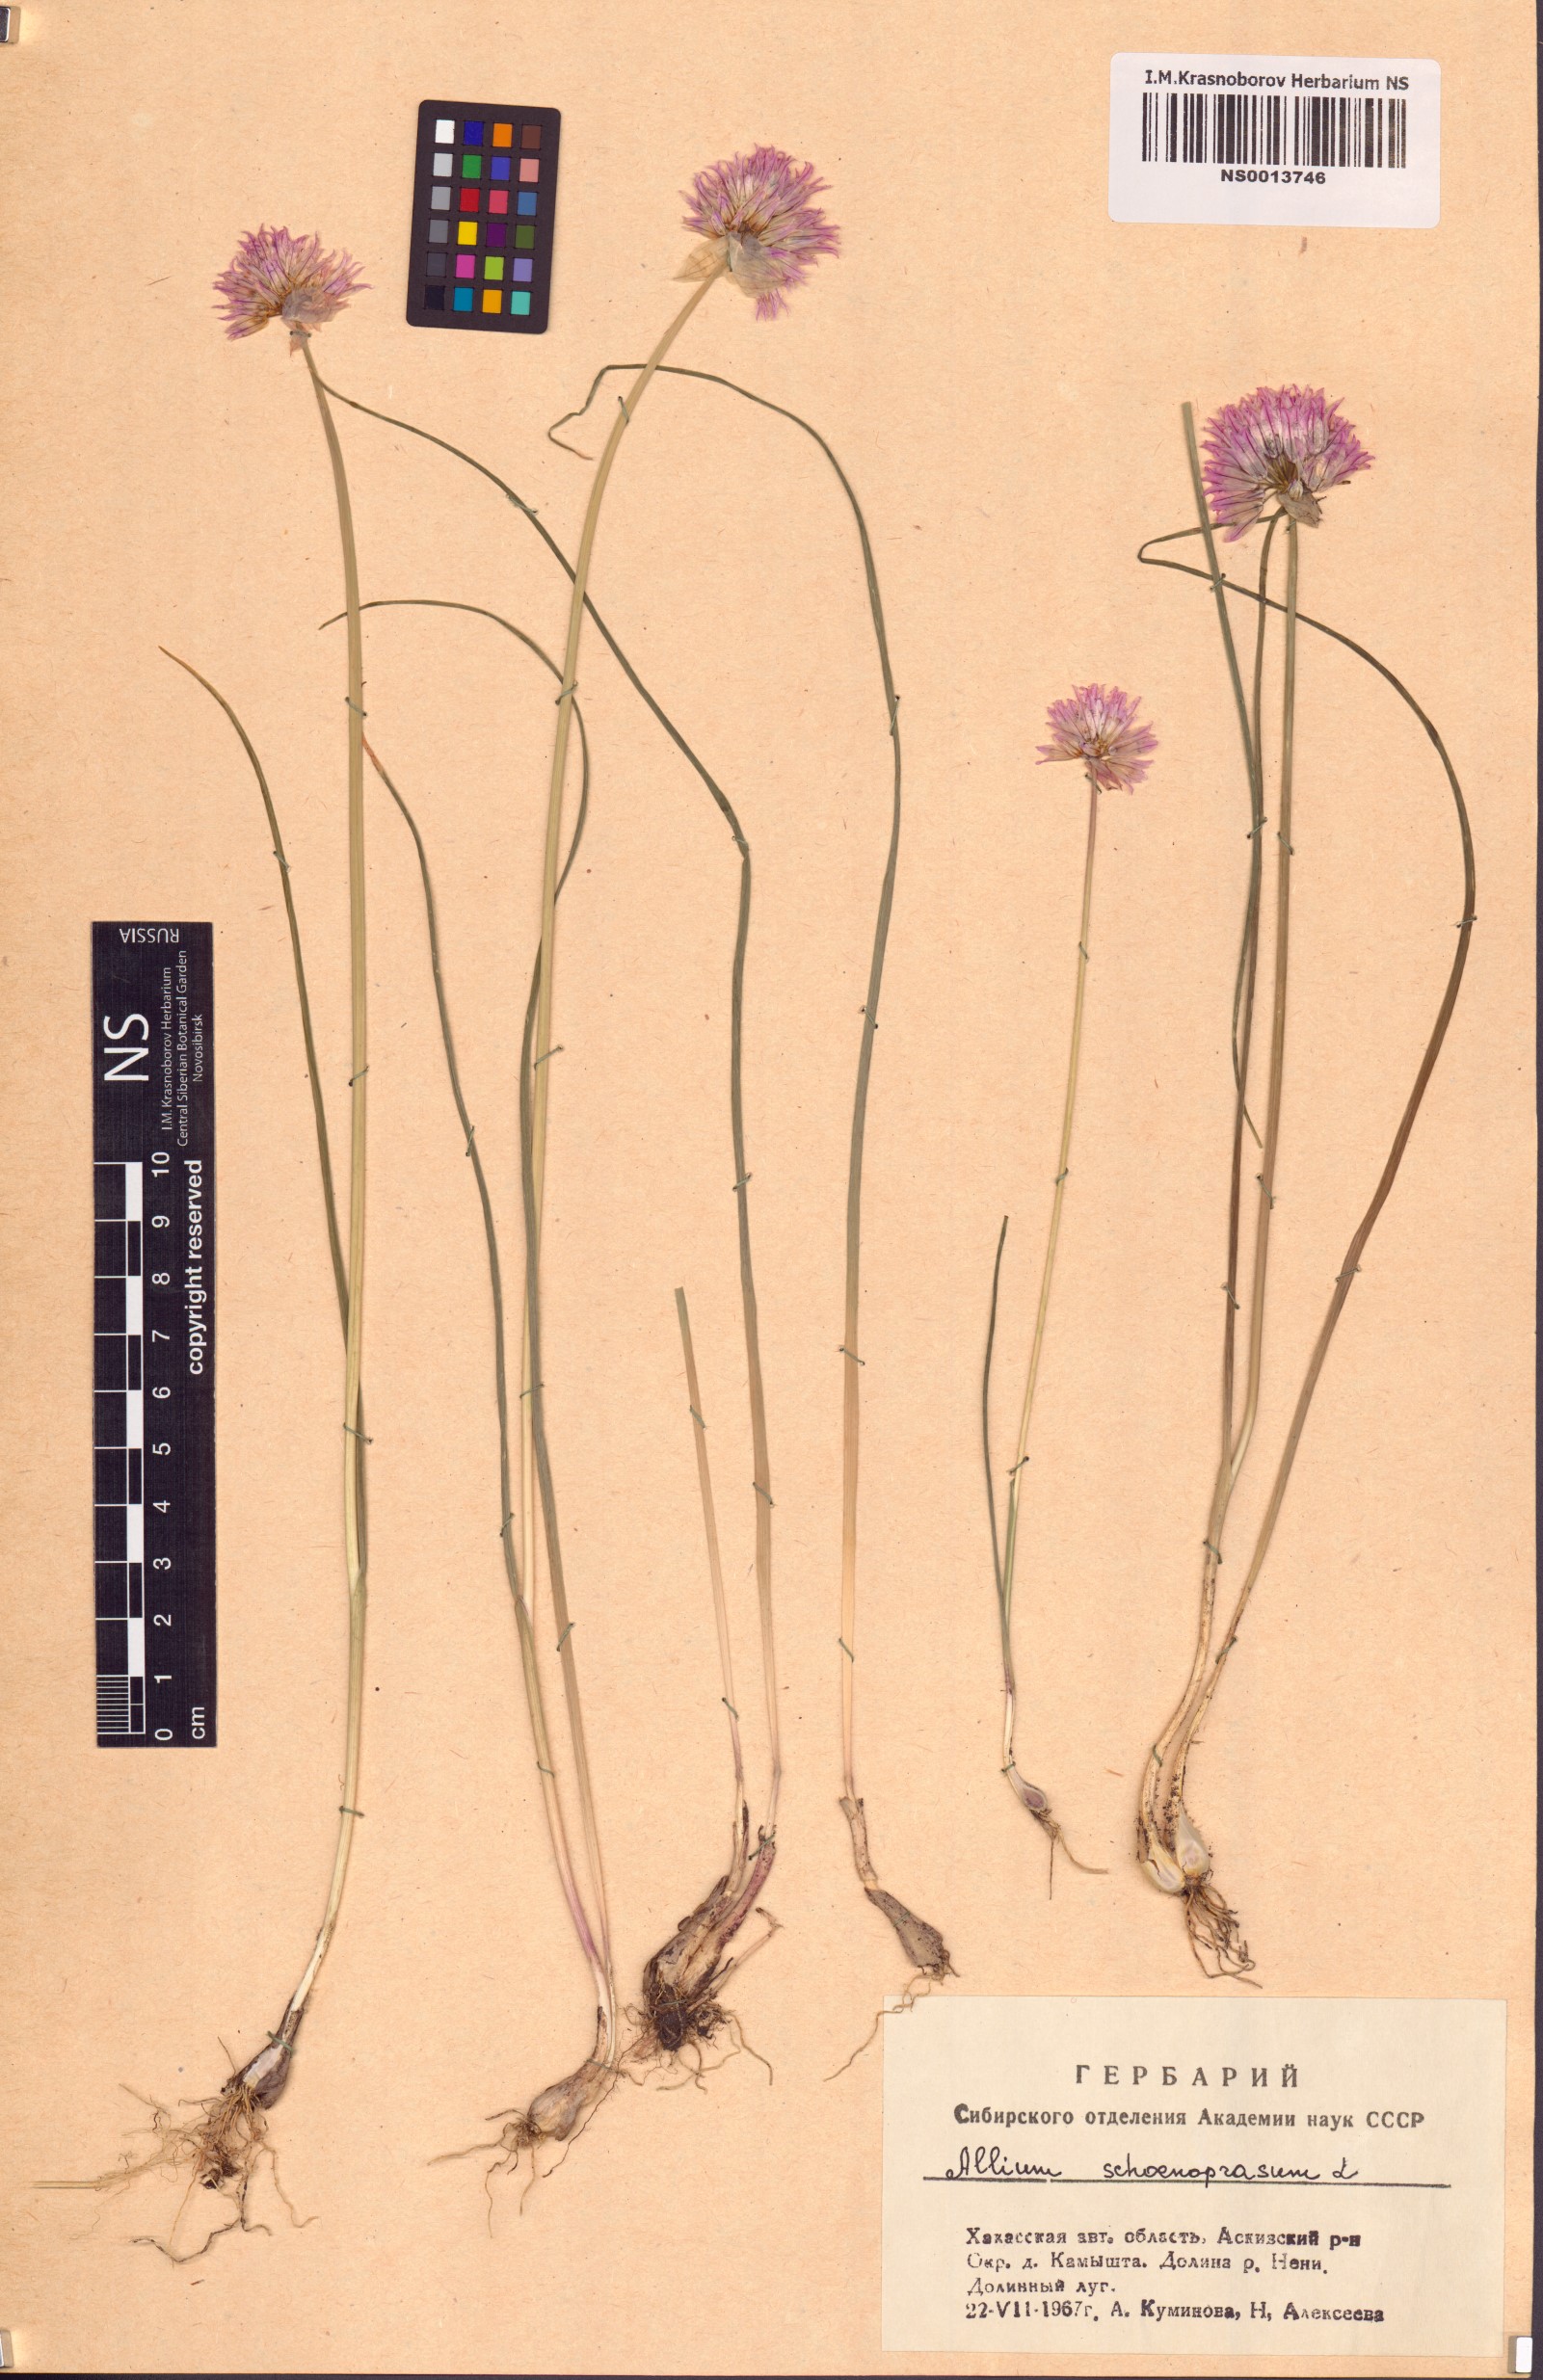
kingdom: Plantae
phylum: Tracheophyta
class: Liliopsida
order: Asparagales
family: Amaryllidaceae
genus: Allium
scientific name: Allium schoenoprasum
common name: Chives
